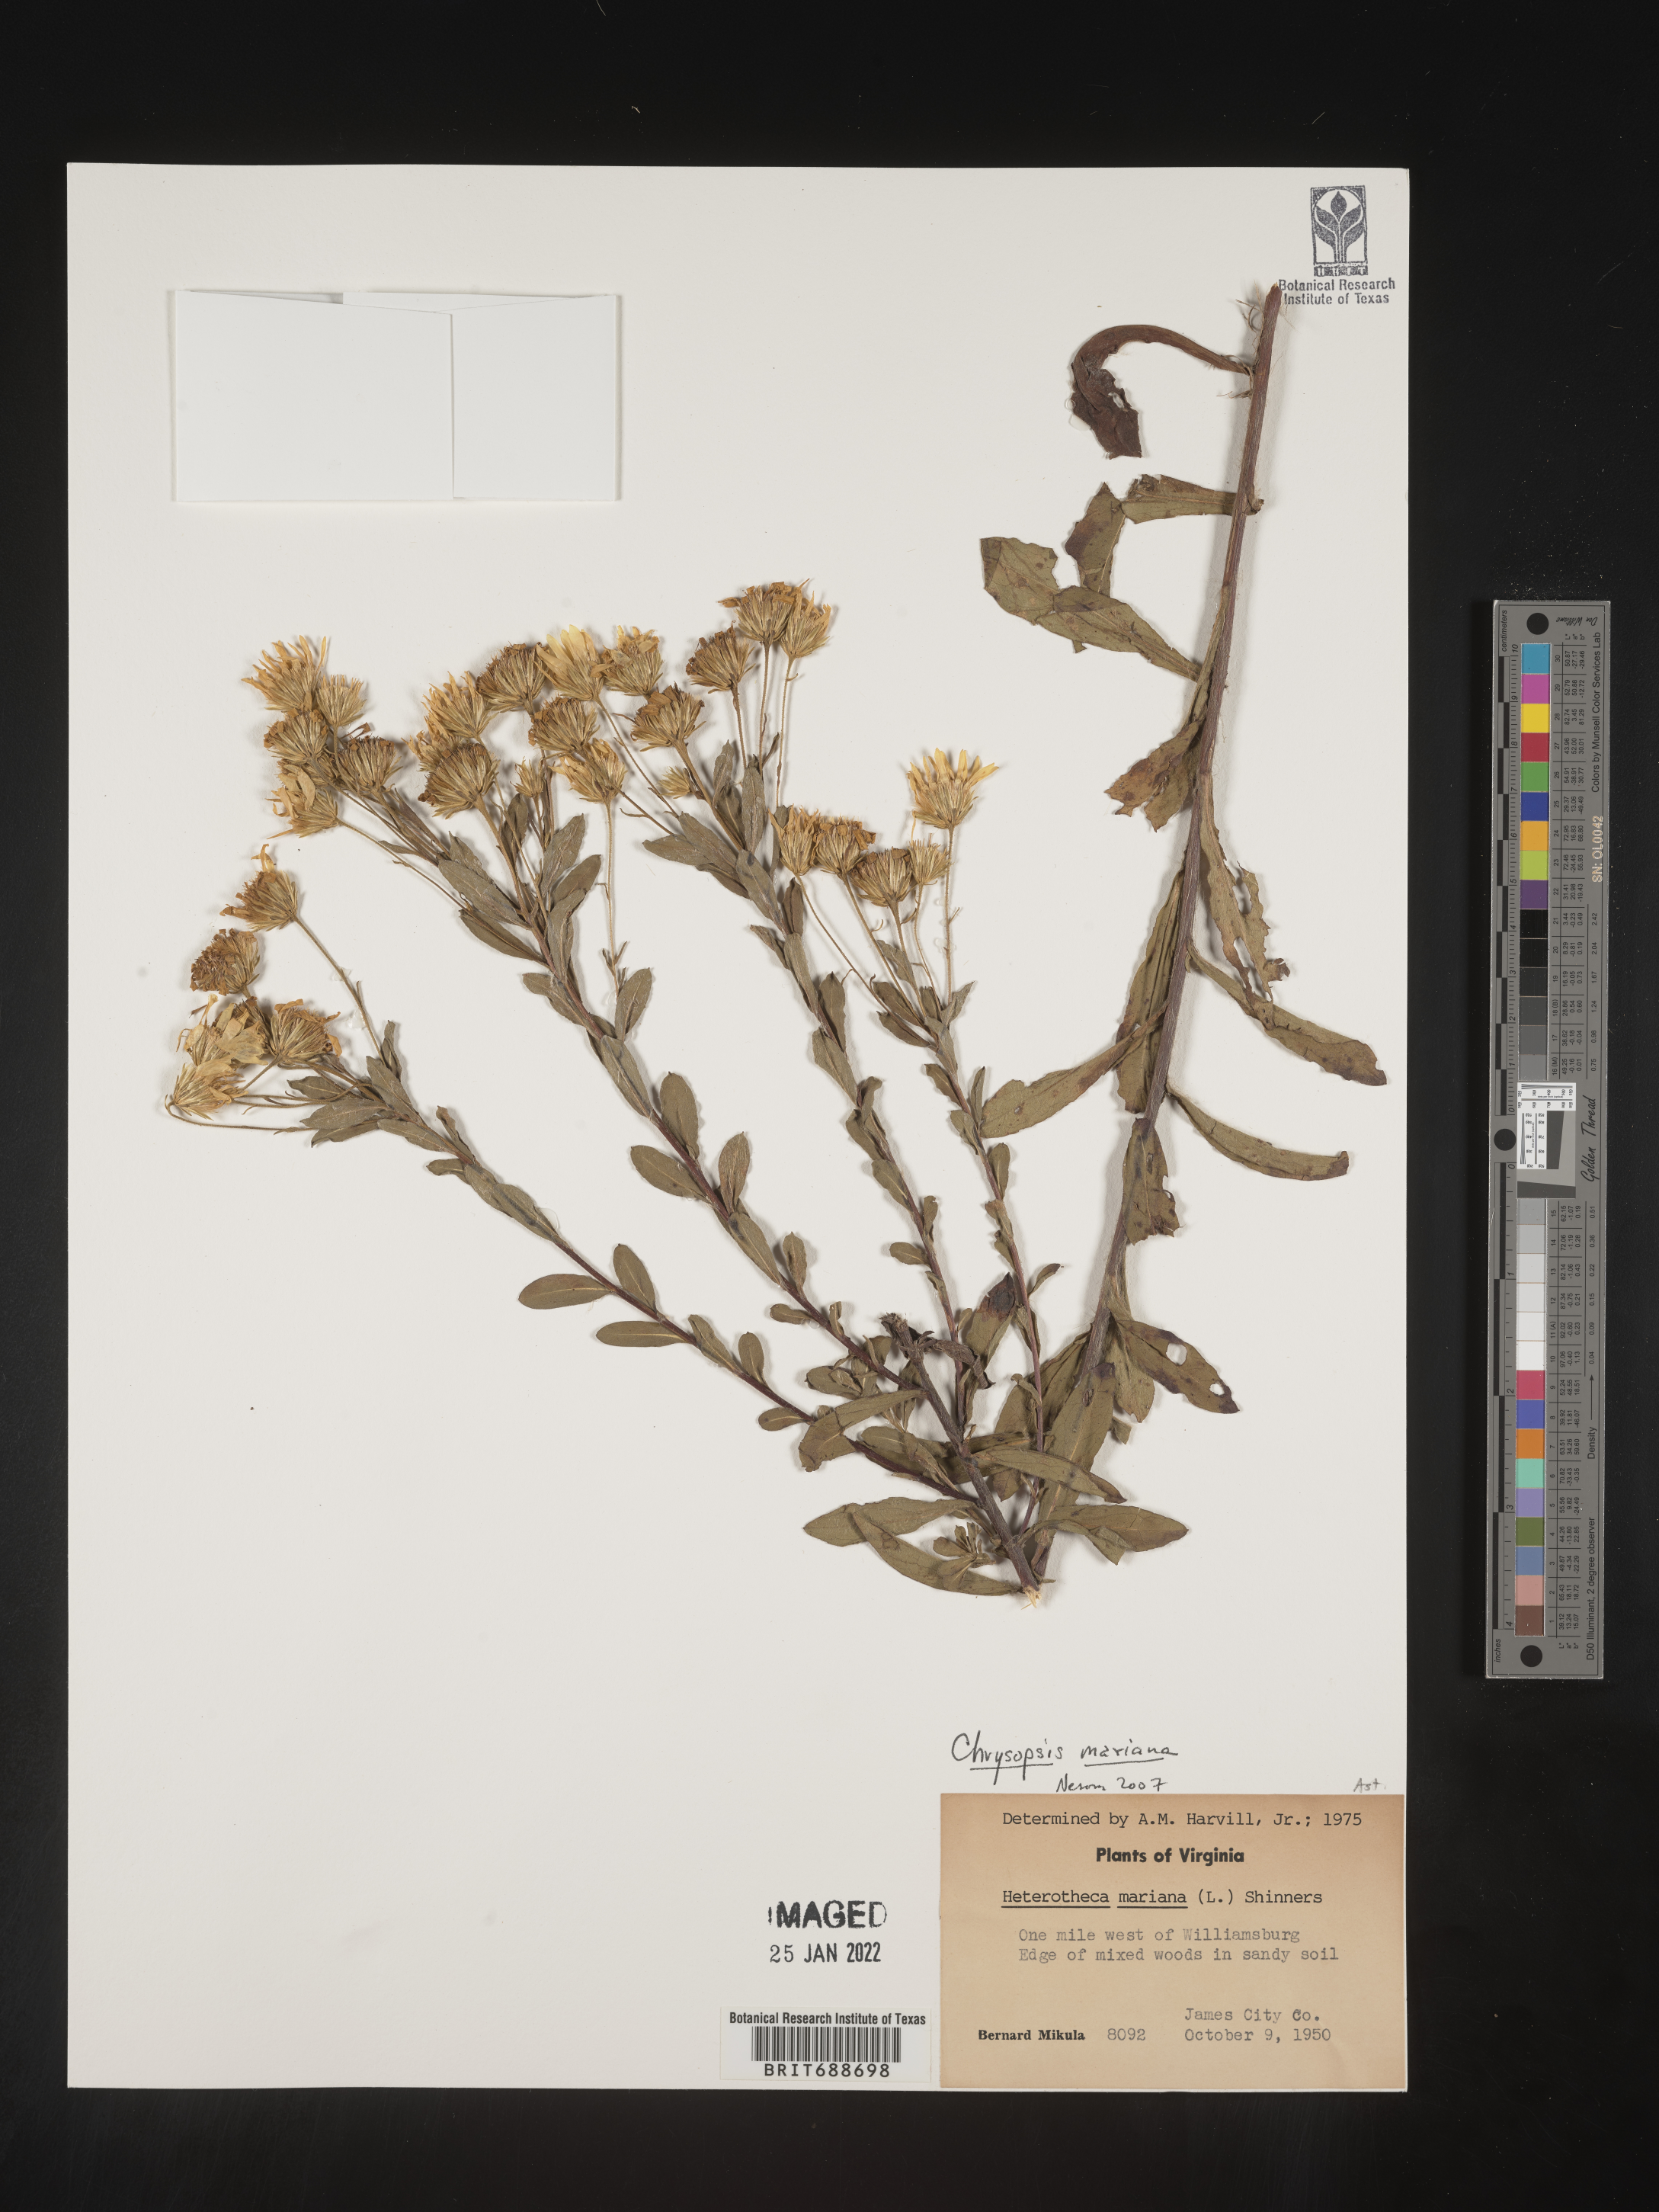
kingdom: Plantae
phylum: Tracheophyta
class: Magnoliopsida
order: Asterales
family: Asteraceae
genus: Chrysopsis
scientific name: Chrysopsis mariana
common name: Maryland golden-aster
